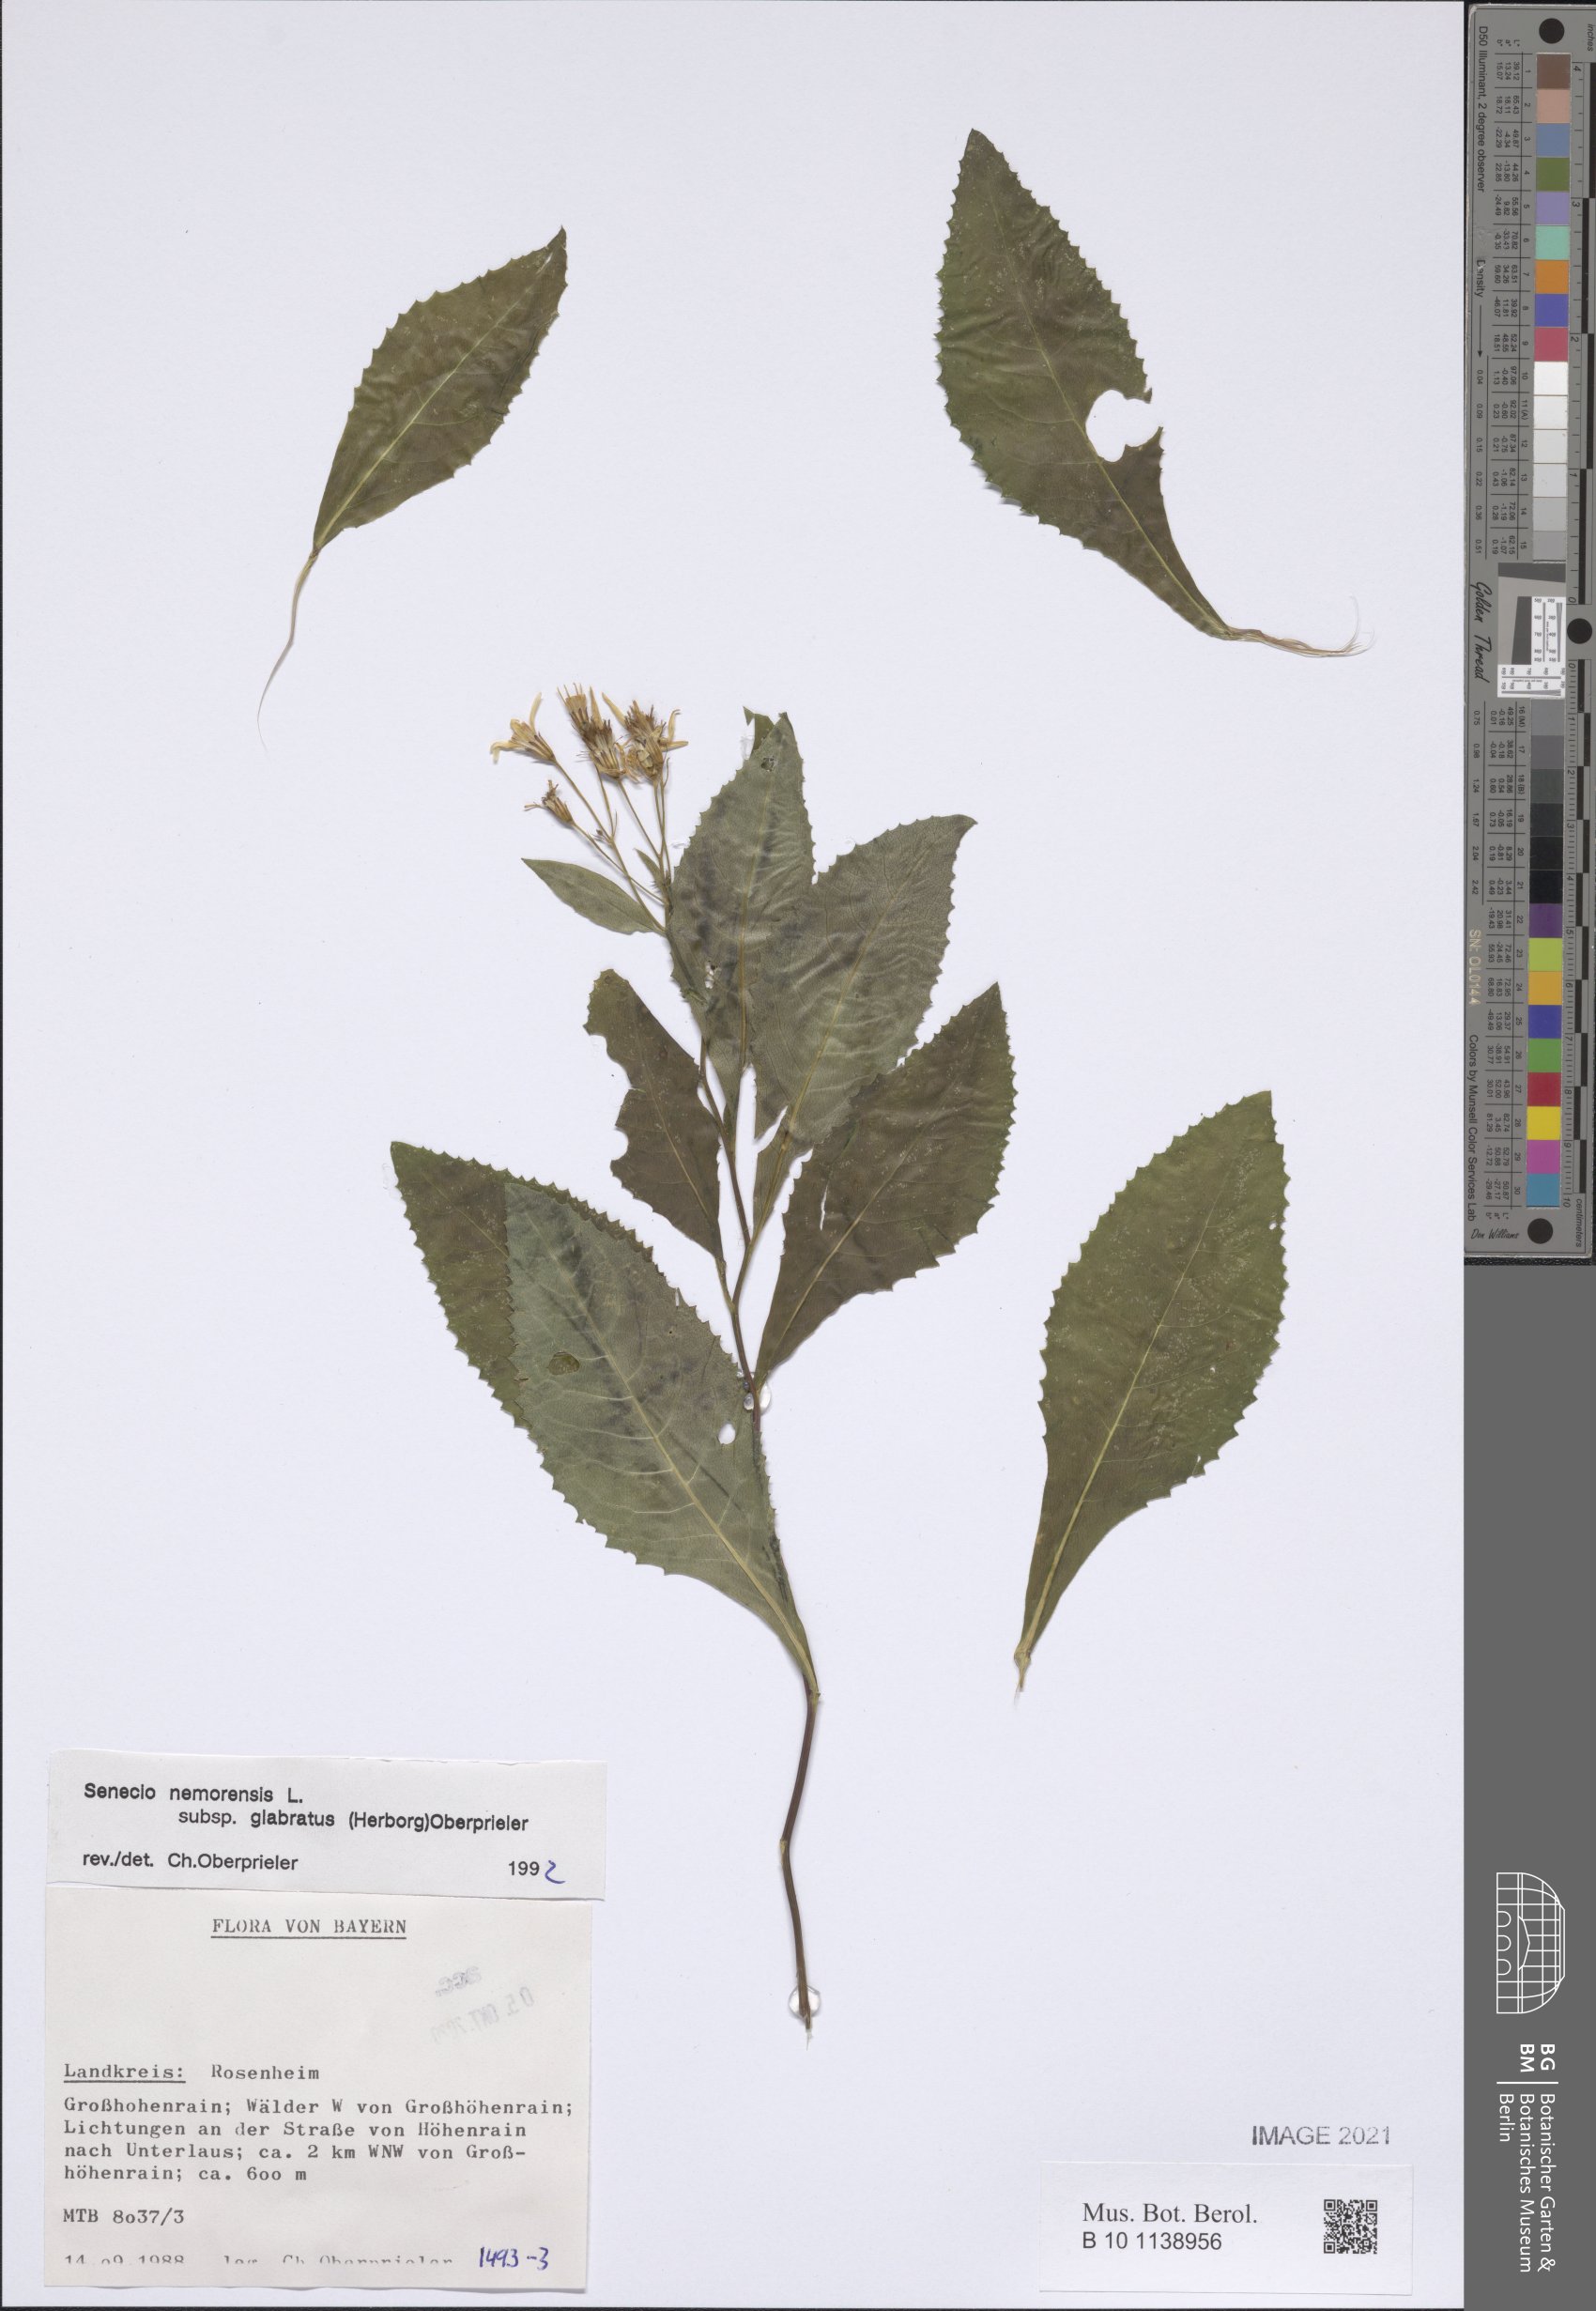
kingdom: Plantae
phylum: Tracheophyta
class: Magnoliopsida
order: Asterales
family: Asteraceae
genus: Senecio
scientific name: Senecio germanicus
